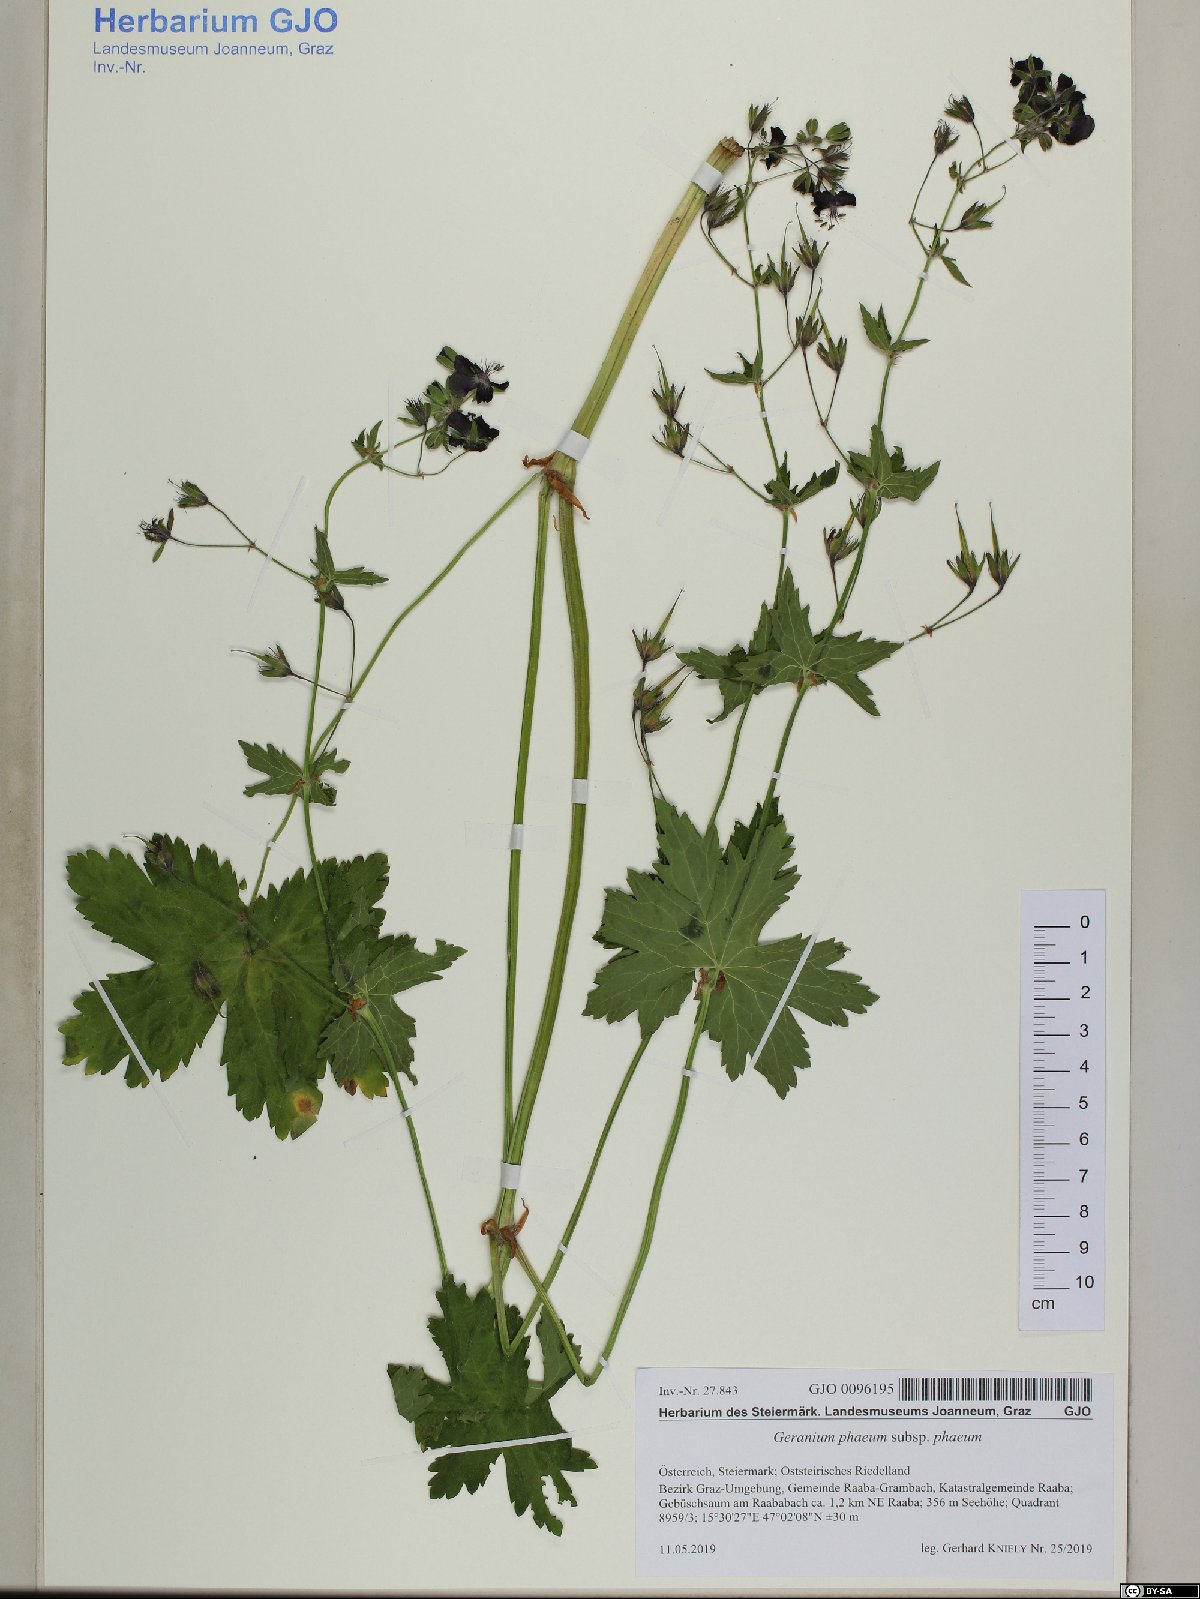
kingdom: Plantae
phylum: Tracheophyta
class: Magnoliopsida
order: Geraniales
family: Geraniaceae
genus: Geranium
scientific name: Geranium phaeum
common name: Dusky crane's-bill
